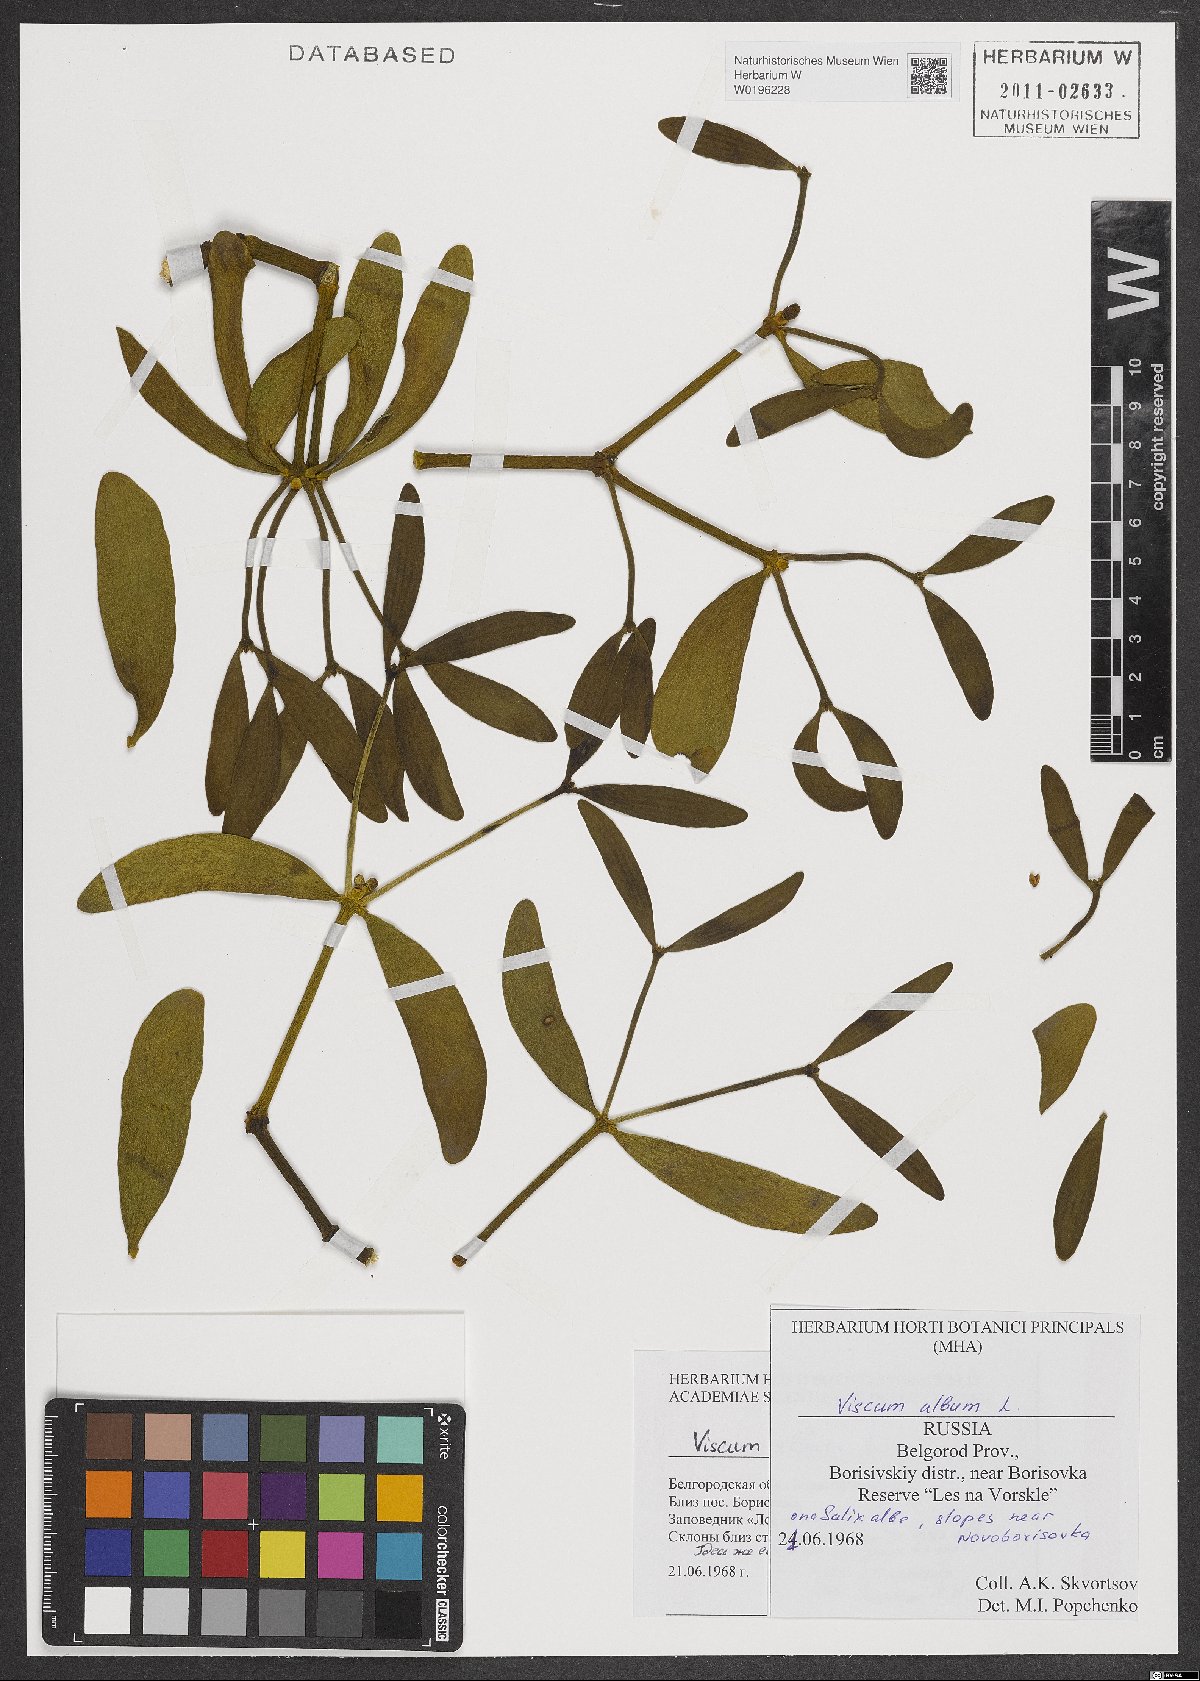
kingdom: Plantae
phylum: Tracheophyta
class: Magnoliopsida
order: Santalales
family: Viscaceae
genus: Viscum
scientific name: Viscum album
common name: Mistletoe
